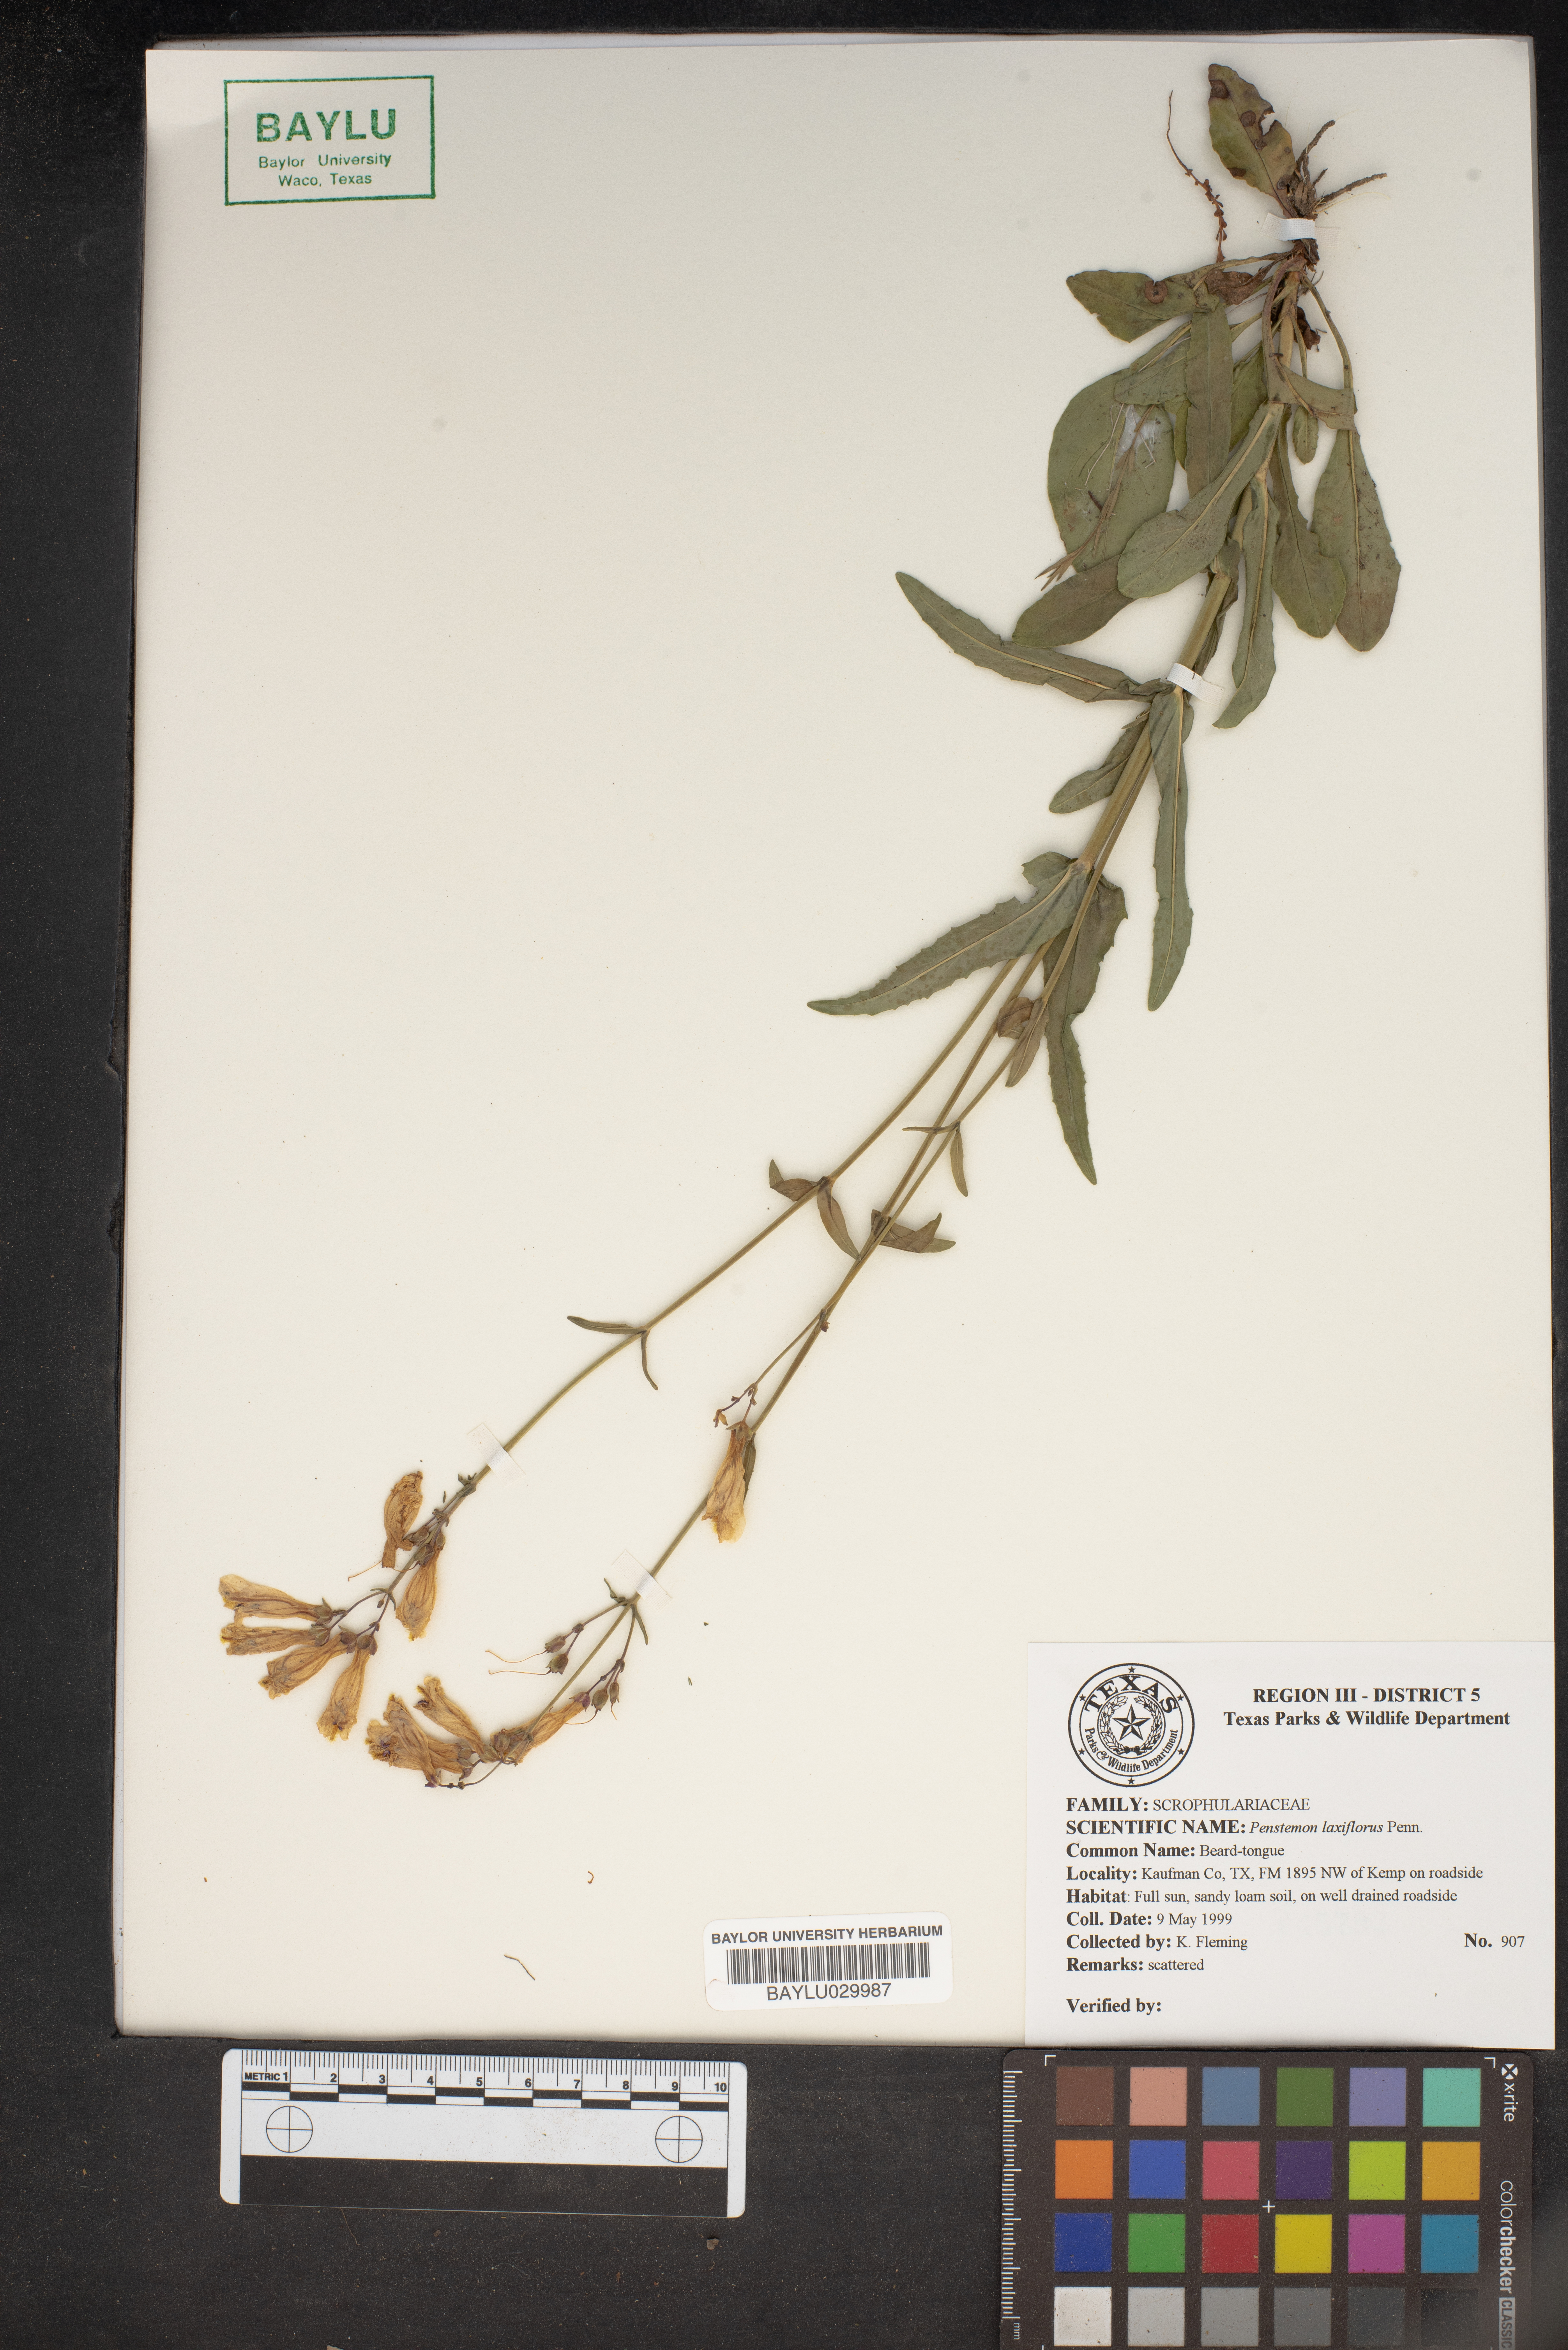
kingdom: Plantae
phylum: Tracheophyta
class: Magnoliopsida
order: Lamiales
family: Plantaginaceae
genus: Penstemon
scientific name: Penstemon laxiflorus
